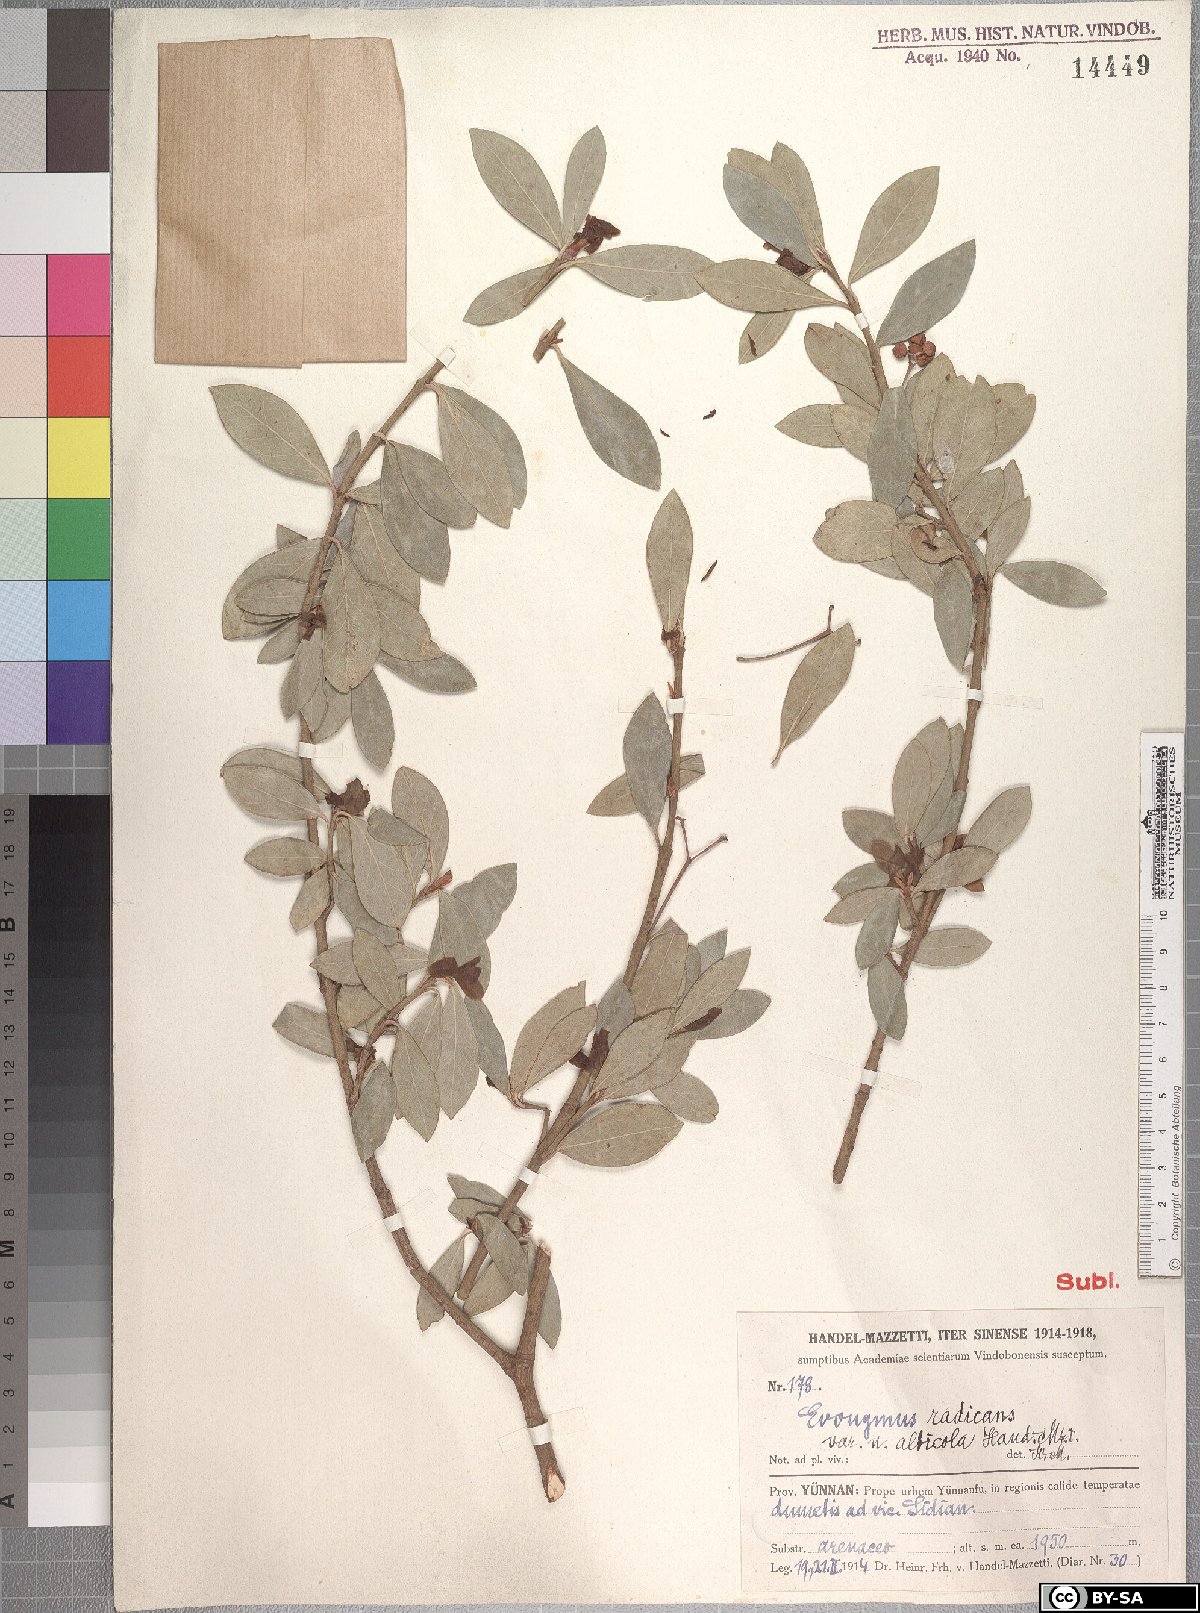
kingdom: Plantae
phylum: Tracheophyta
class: Magnoliopsida
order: Celastrales
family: Celastraceae
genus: Euonymus
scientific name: Euonymus fortunei
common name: Climbing euonymus
